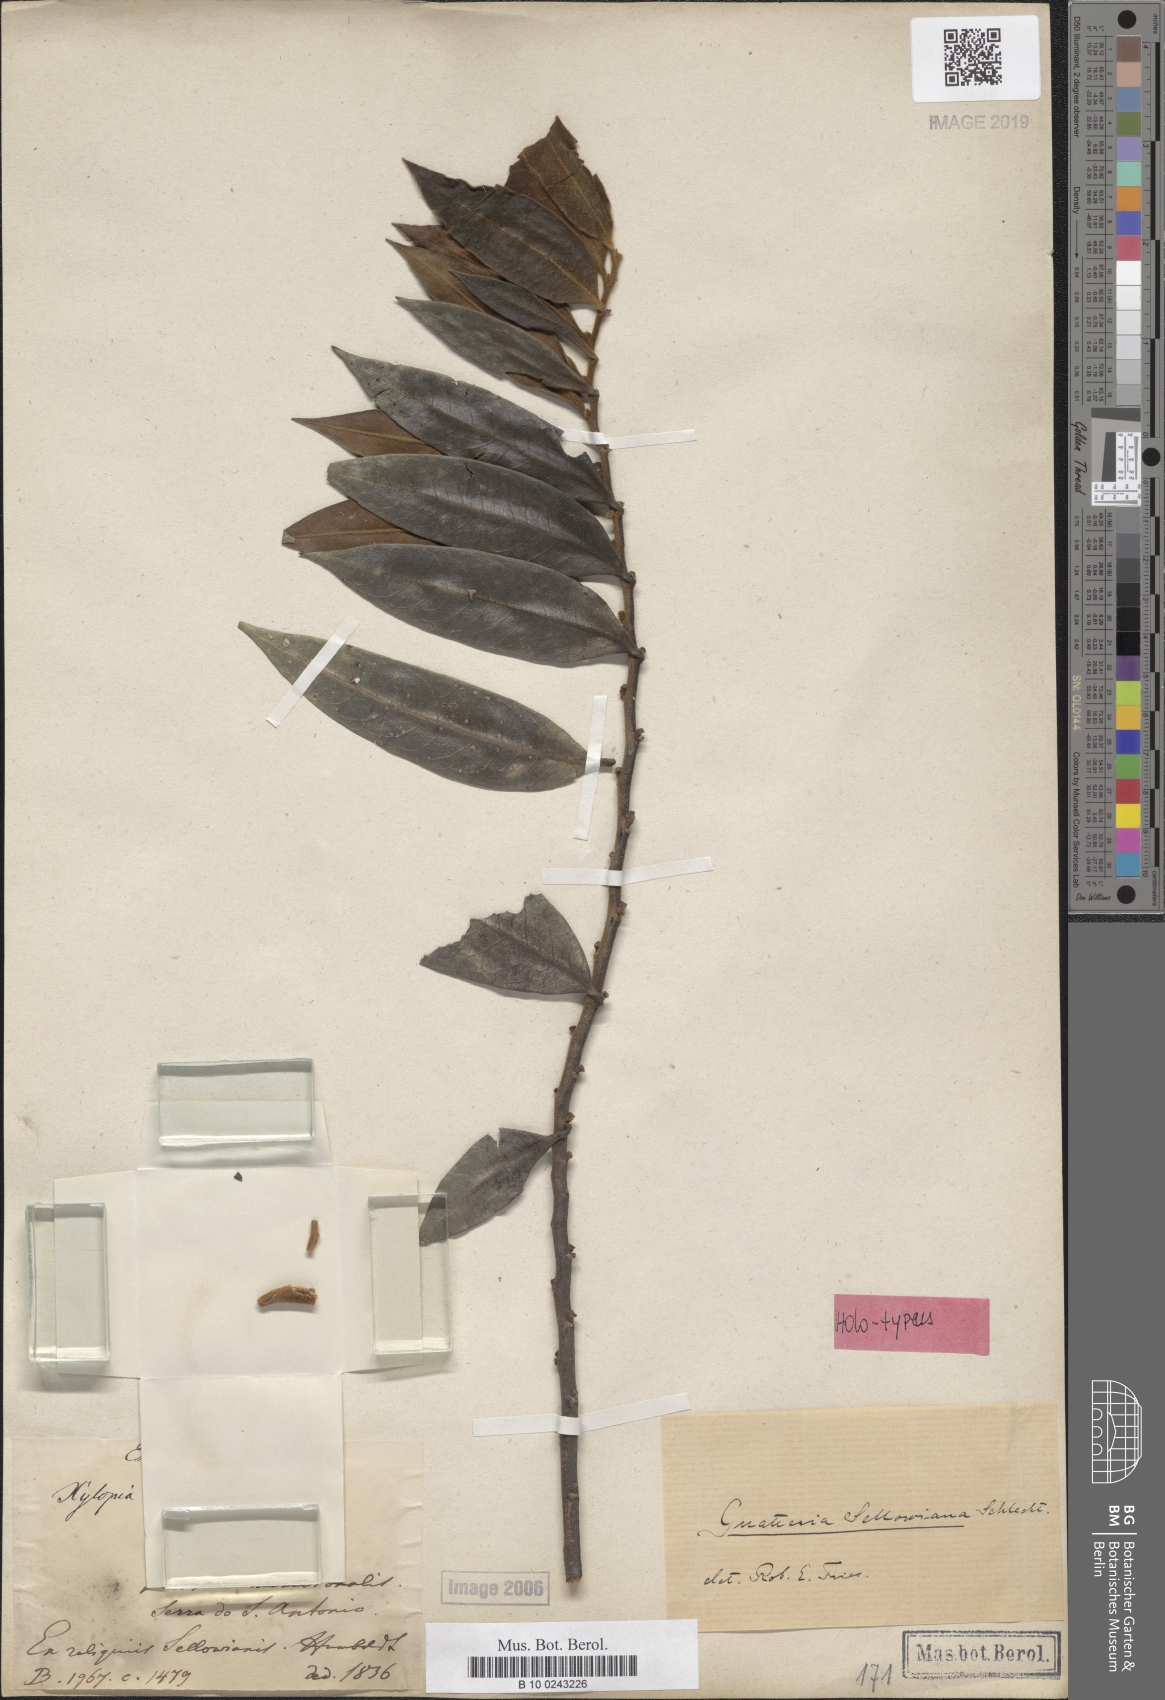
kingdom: Plantae
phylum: Tracheophyta
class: Magnoliopsida
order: Magnoliales
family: Annonaceae
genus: Guatteria
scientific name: Guatteria sellowiana
